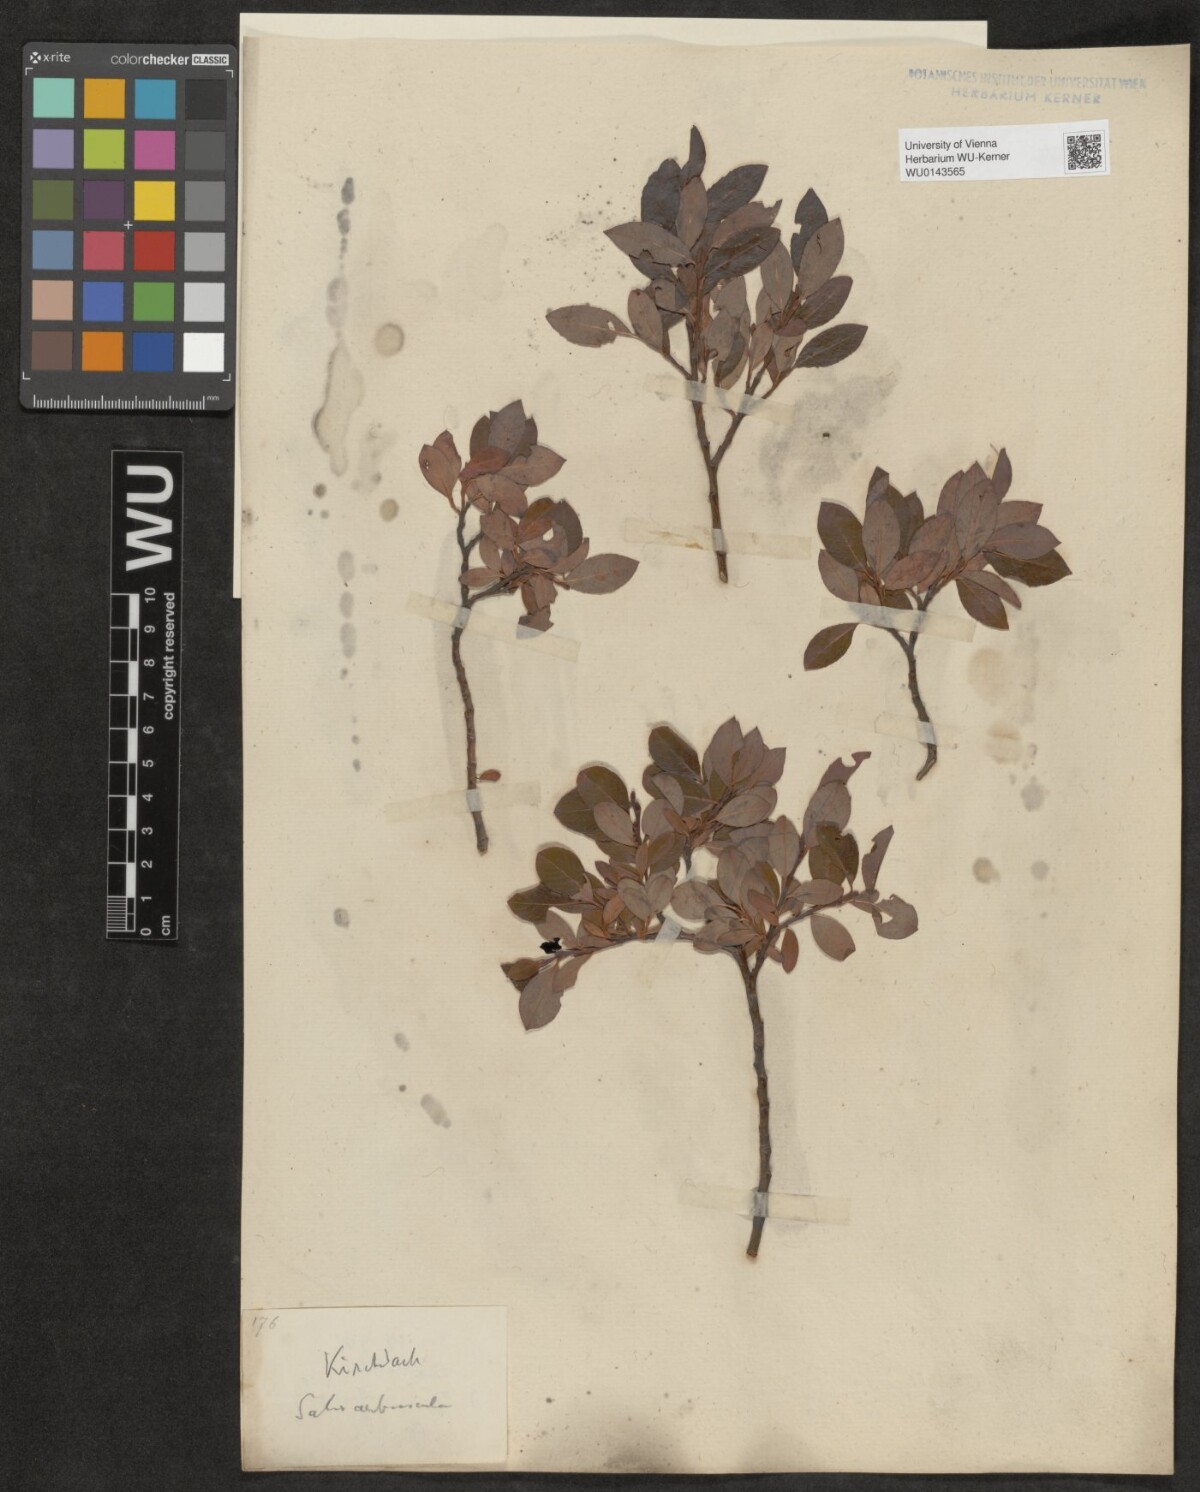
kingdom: Plantae
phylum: Tracheophyta
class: Magnoliopsida
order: Malpighiales
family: Salicaceae
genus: Salix
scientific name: Salix waldsteiniana
